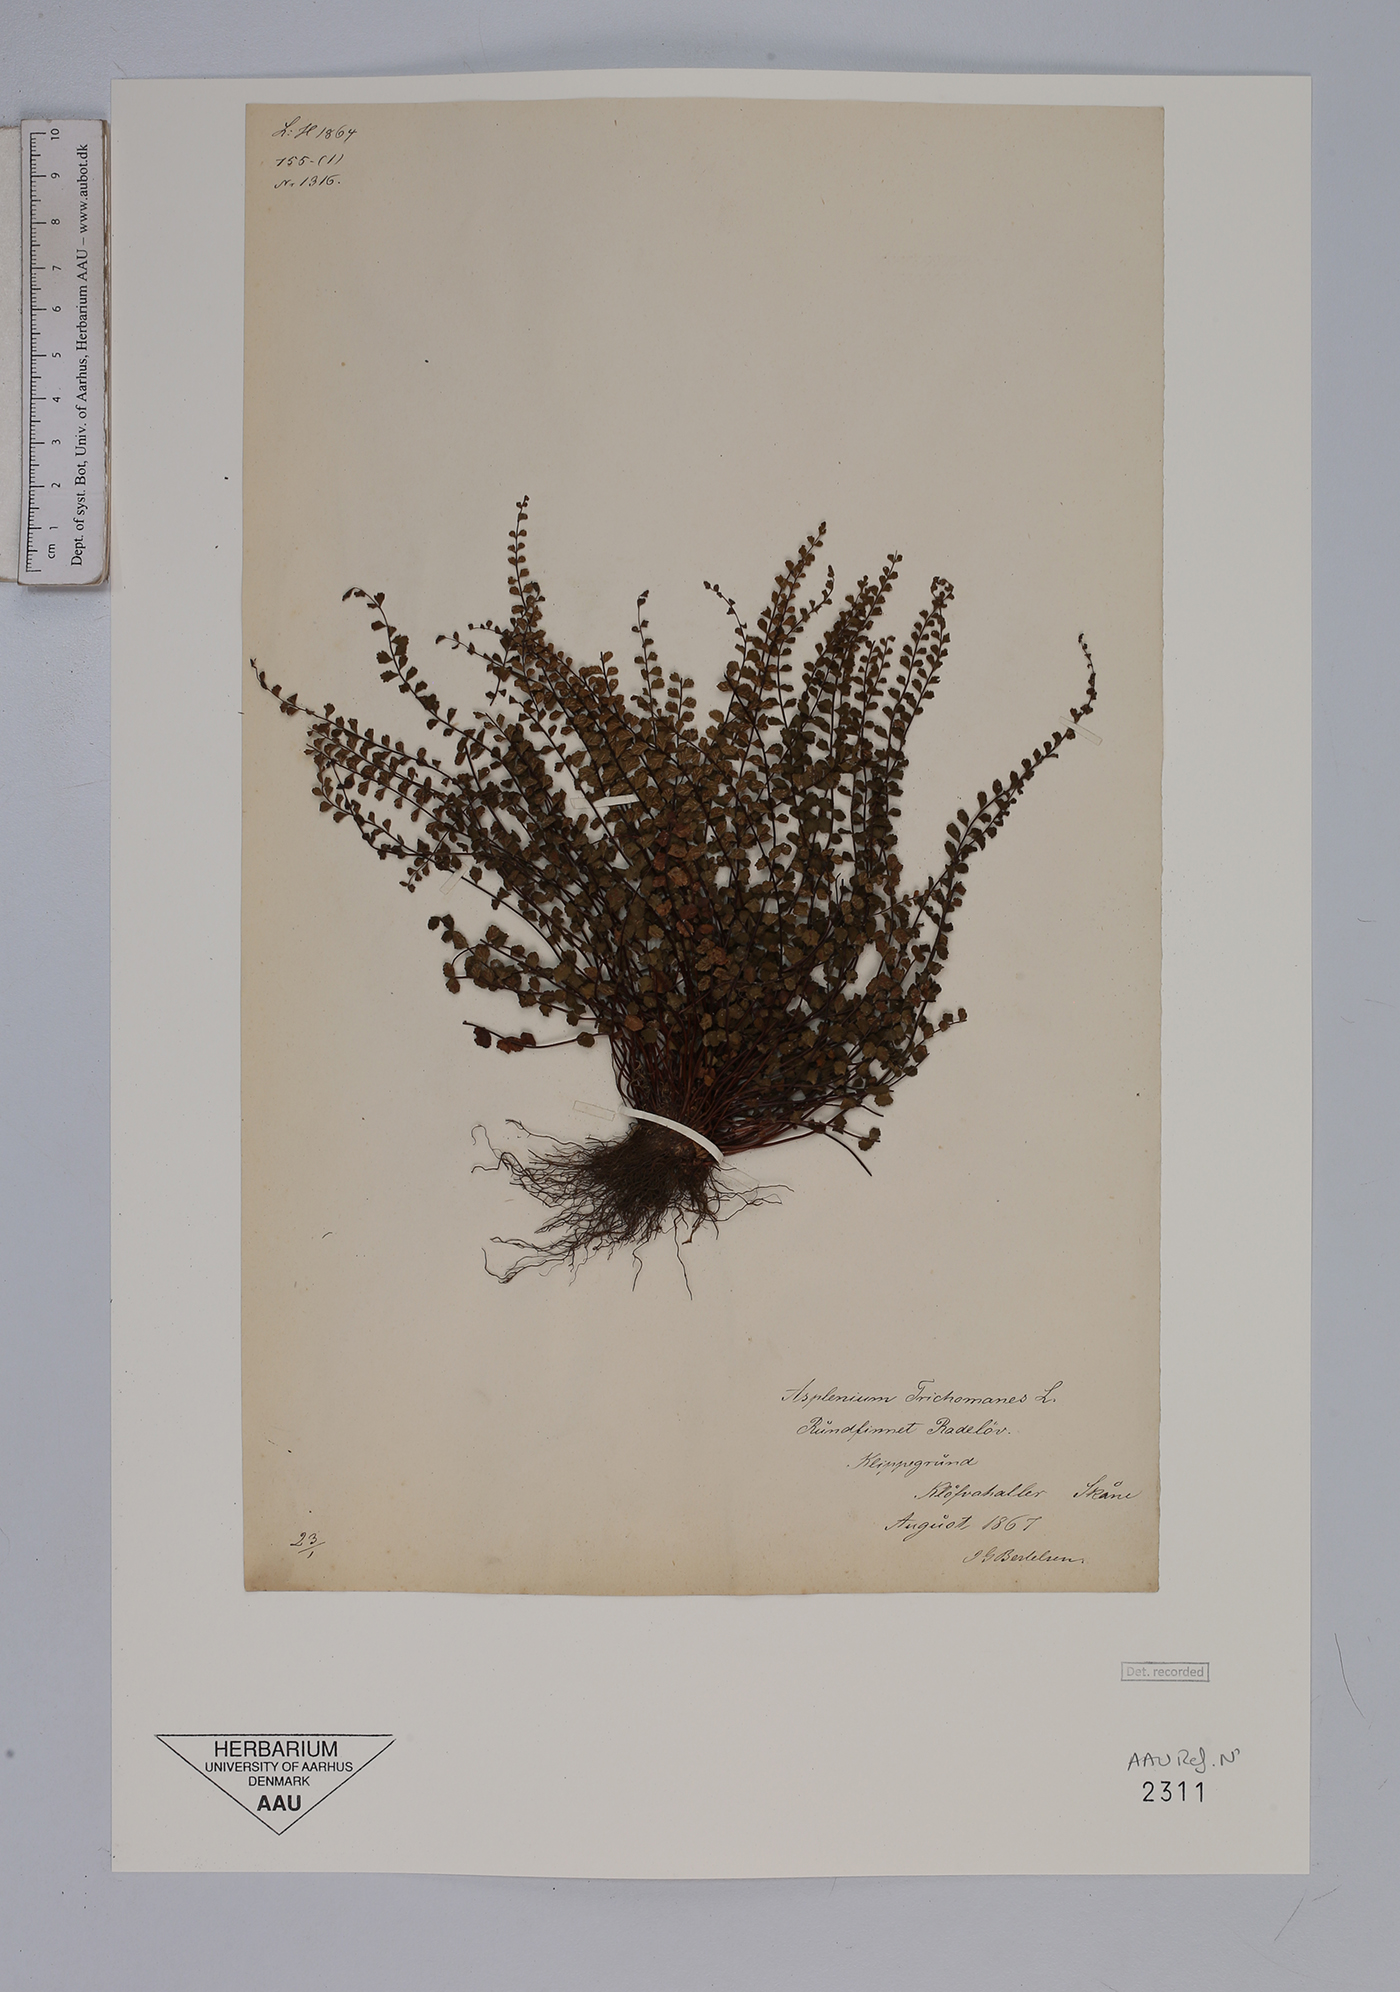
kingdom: Plantae
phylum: Tracheophyta
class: Polypodiopsida
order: Polypodiales
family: Aspleniaceae
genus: Asplenium
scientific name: Asplenium trichomanes
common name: Maidenhair spleenwort
